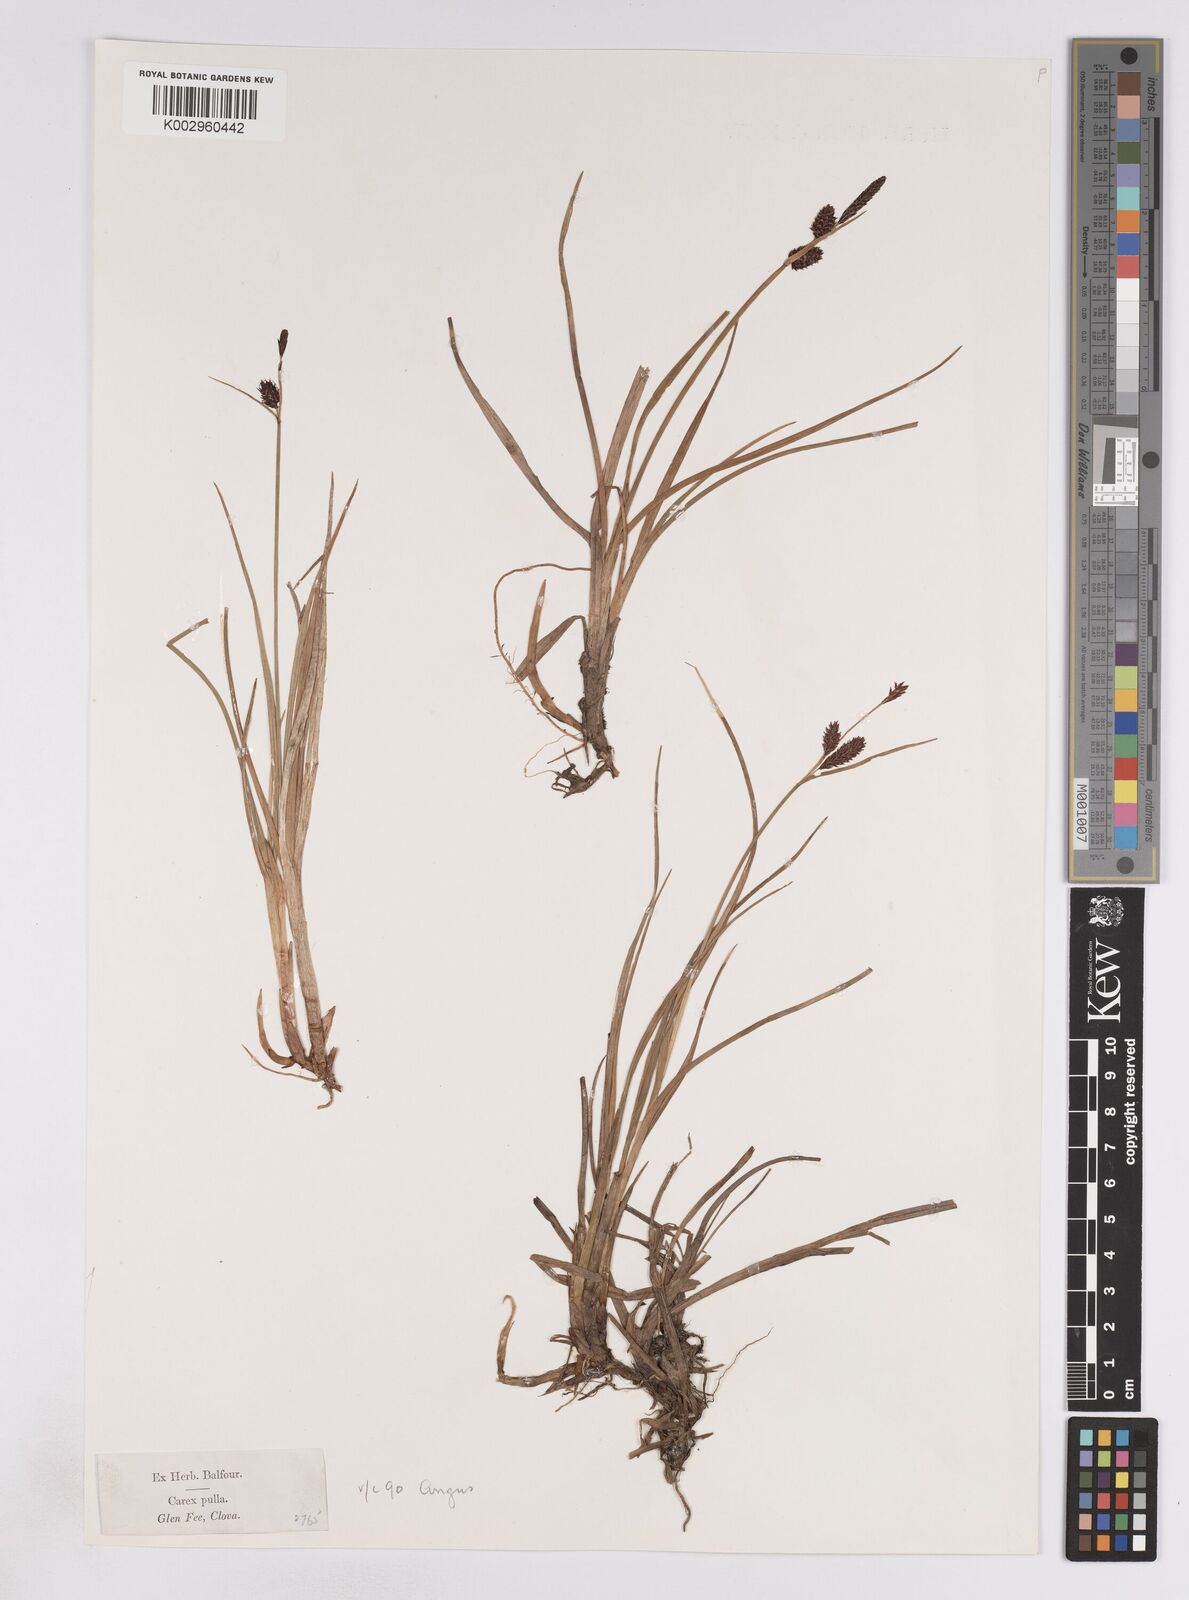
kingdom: Plantae
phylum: Tracheophyta
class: Liliopsida
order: Poales
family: Cyperaceae
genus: Carex
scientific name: Carex saxatilis
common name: Russet sedge
